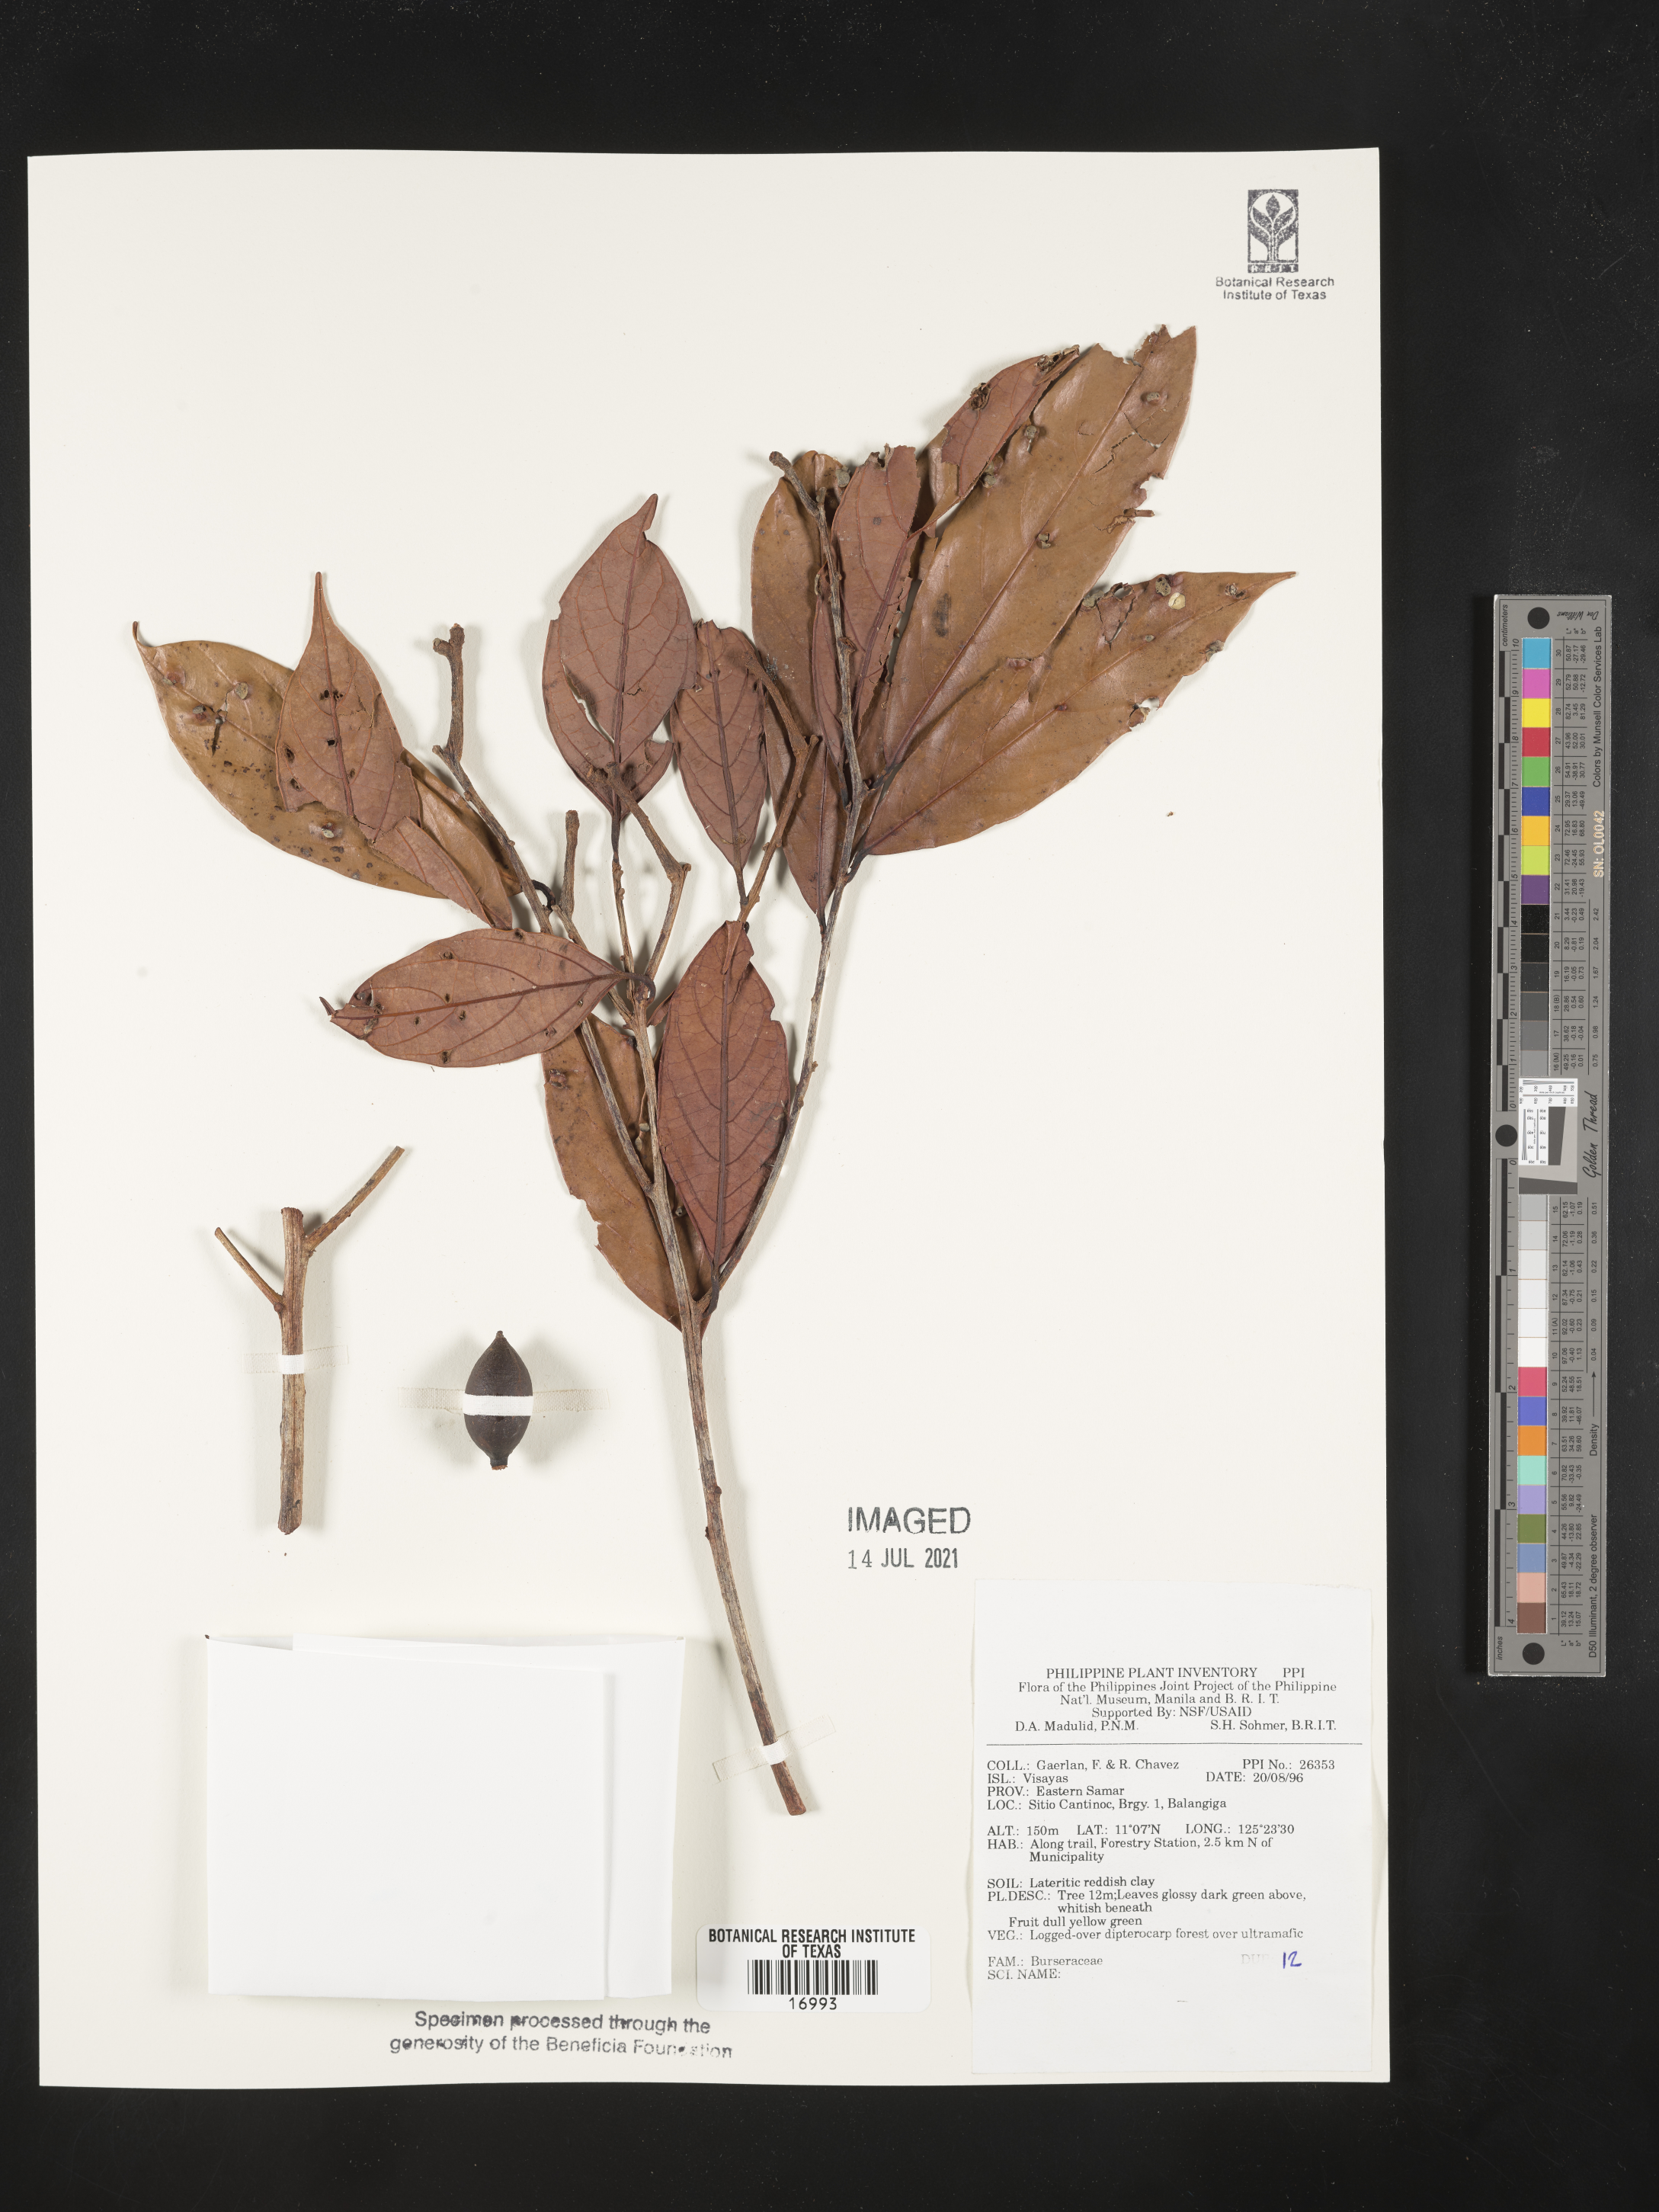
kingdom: Plantae
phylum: Tracheophyta
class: Magnoliopsida
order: Sapindales
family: Burseraceae
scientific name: Burseraceae
